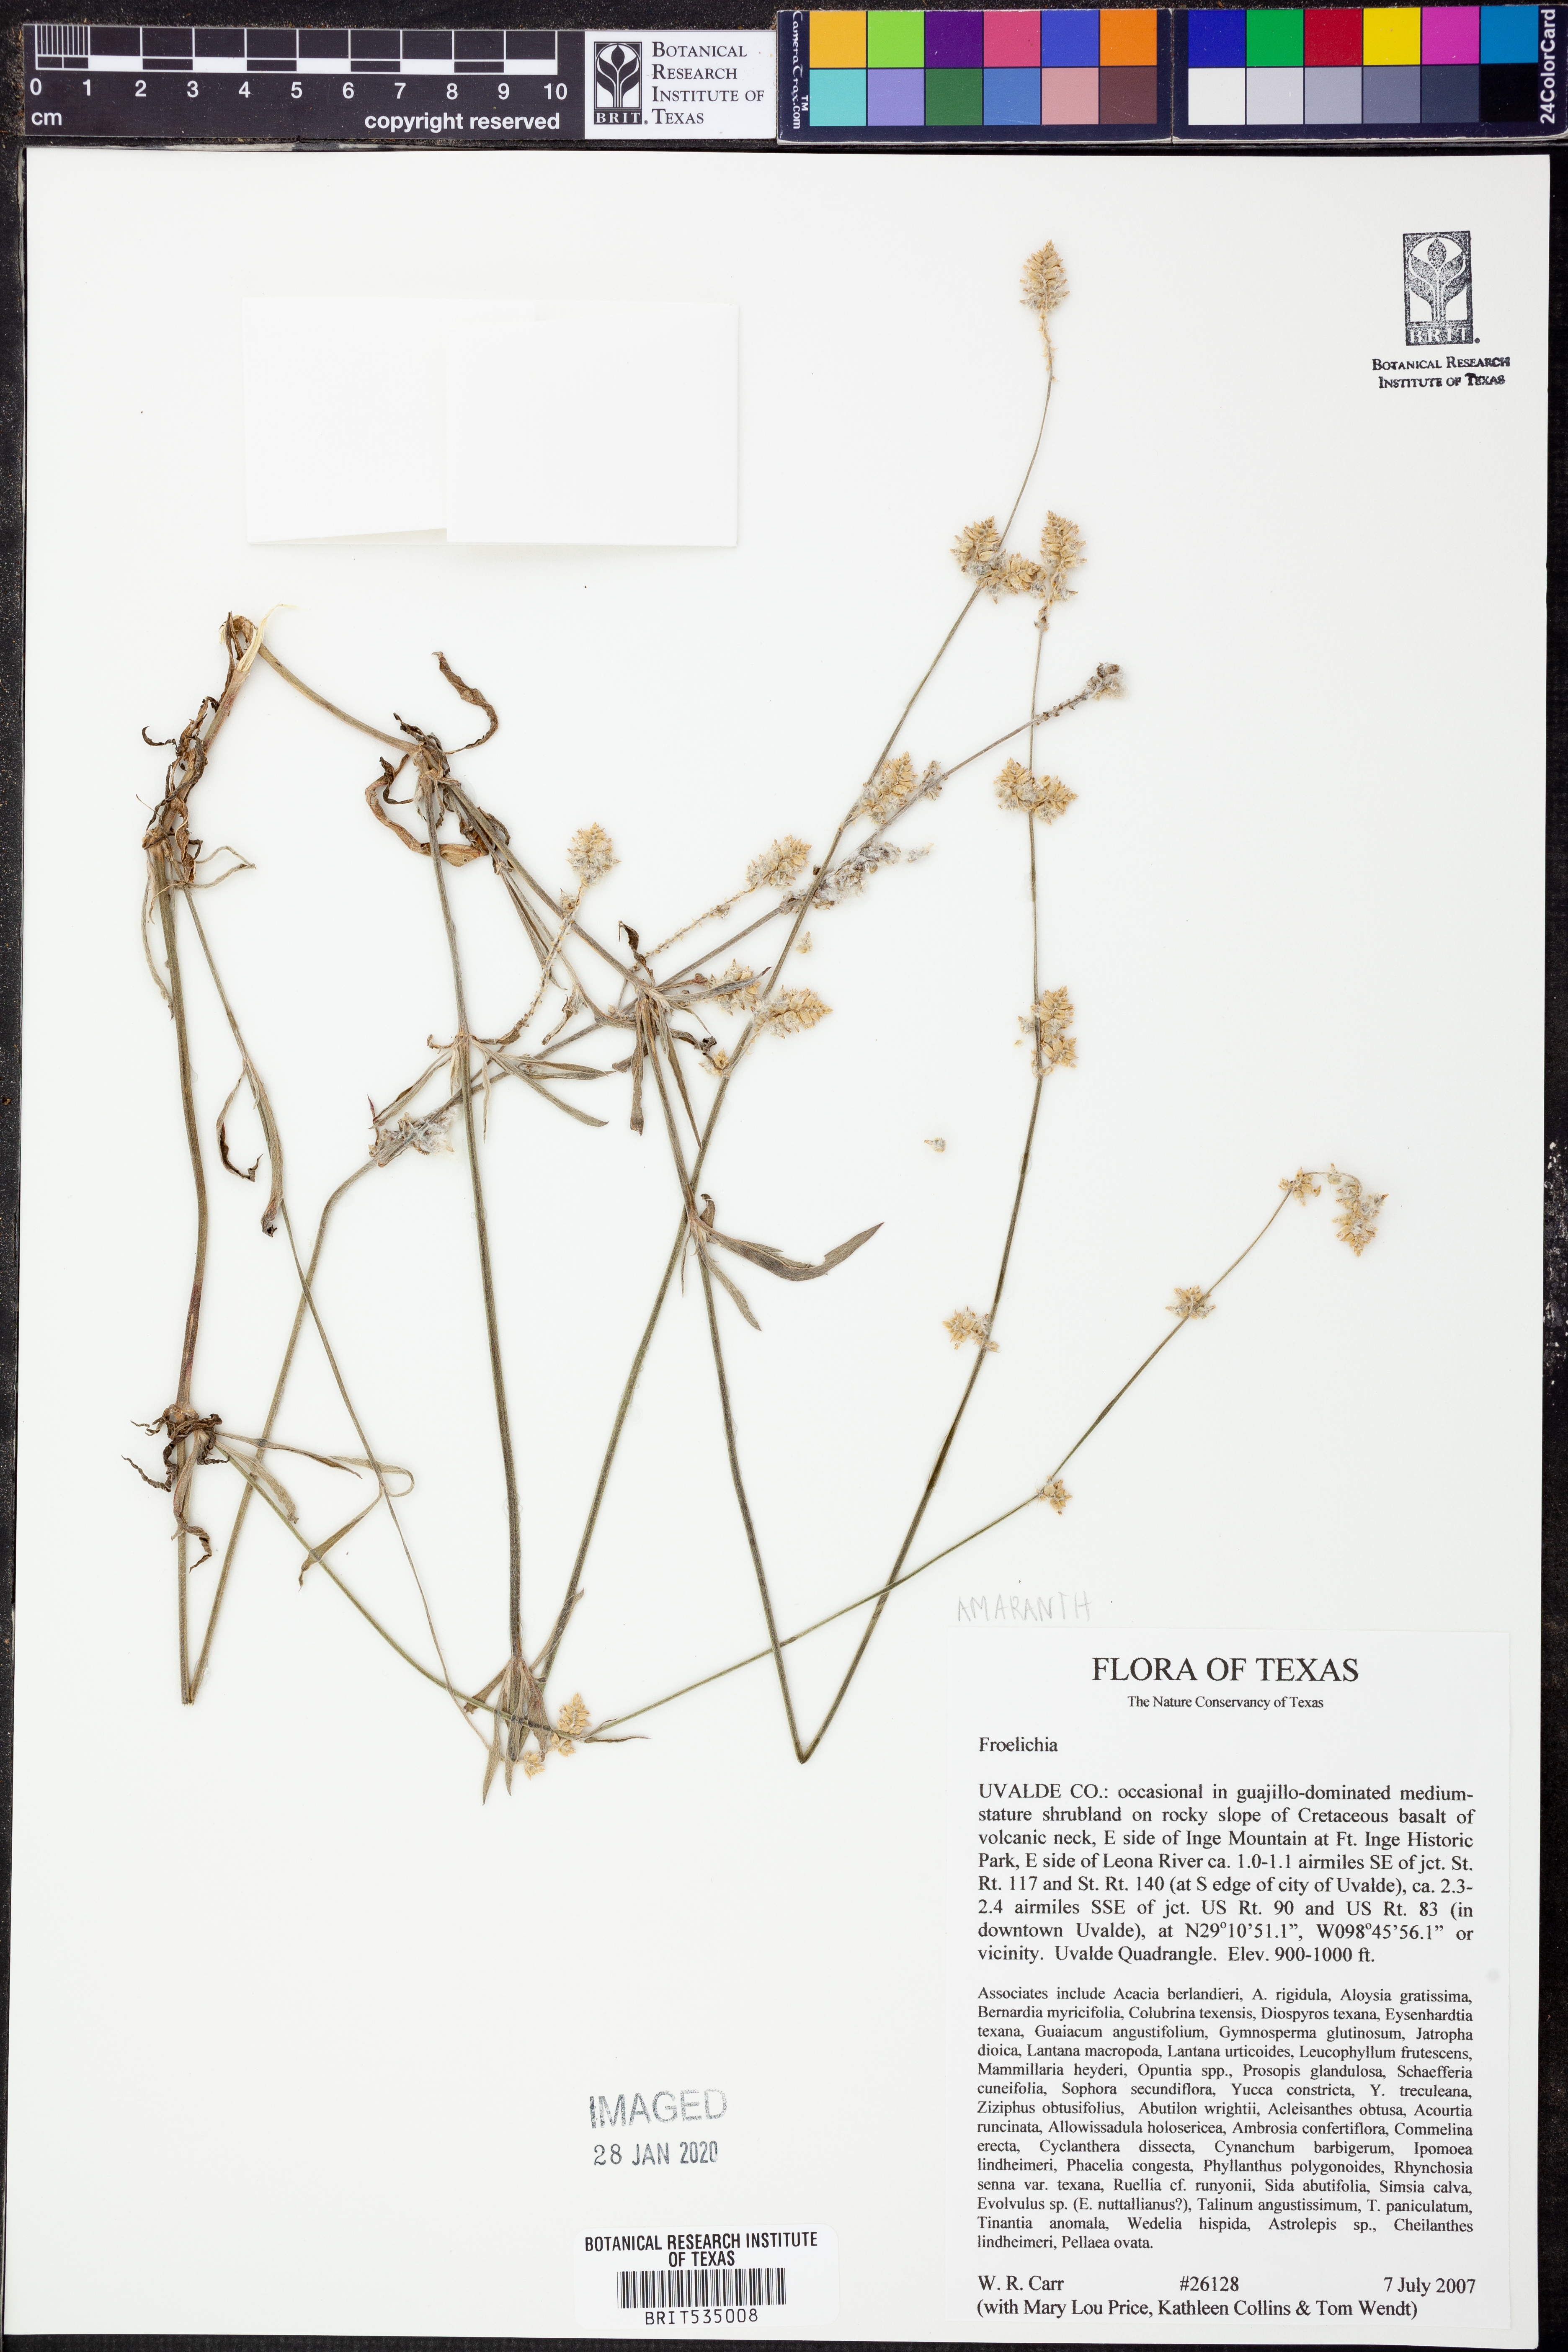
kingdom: Plantae
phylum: Tracheophyta
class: Magnoliopsida
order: Caryophyllales
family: Amaranthaceae
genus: Froelichia
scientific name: Froelichia
